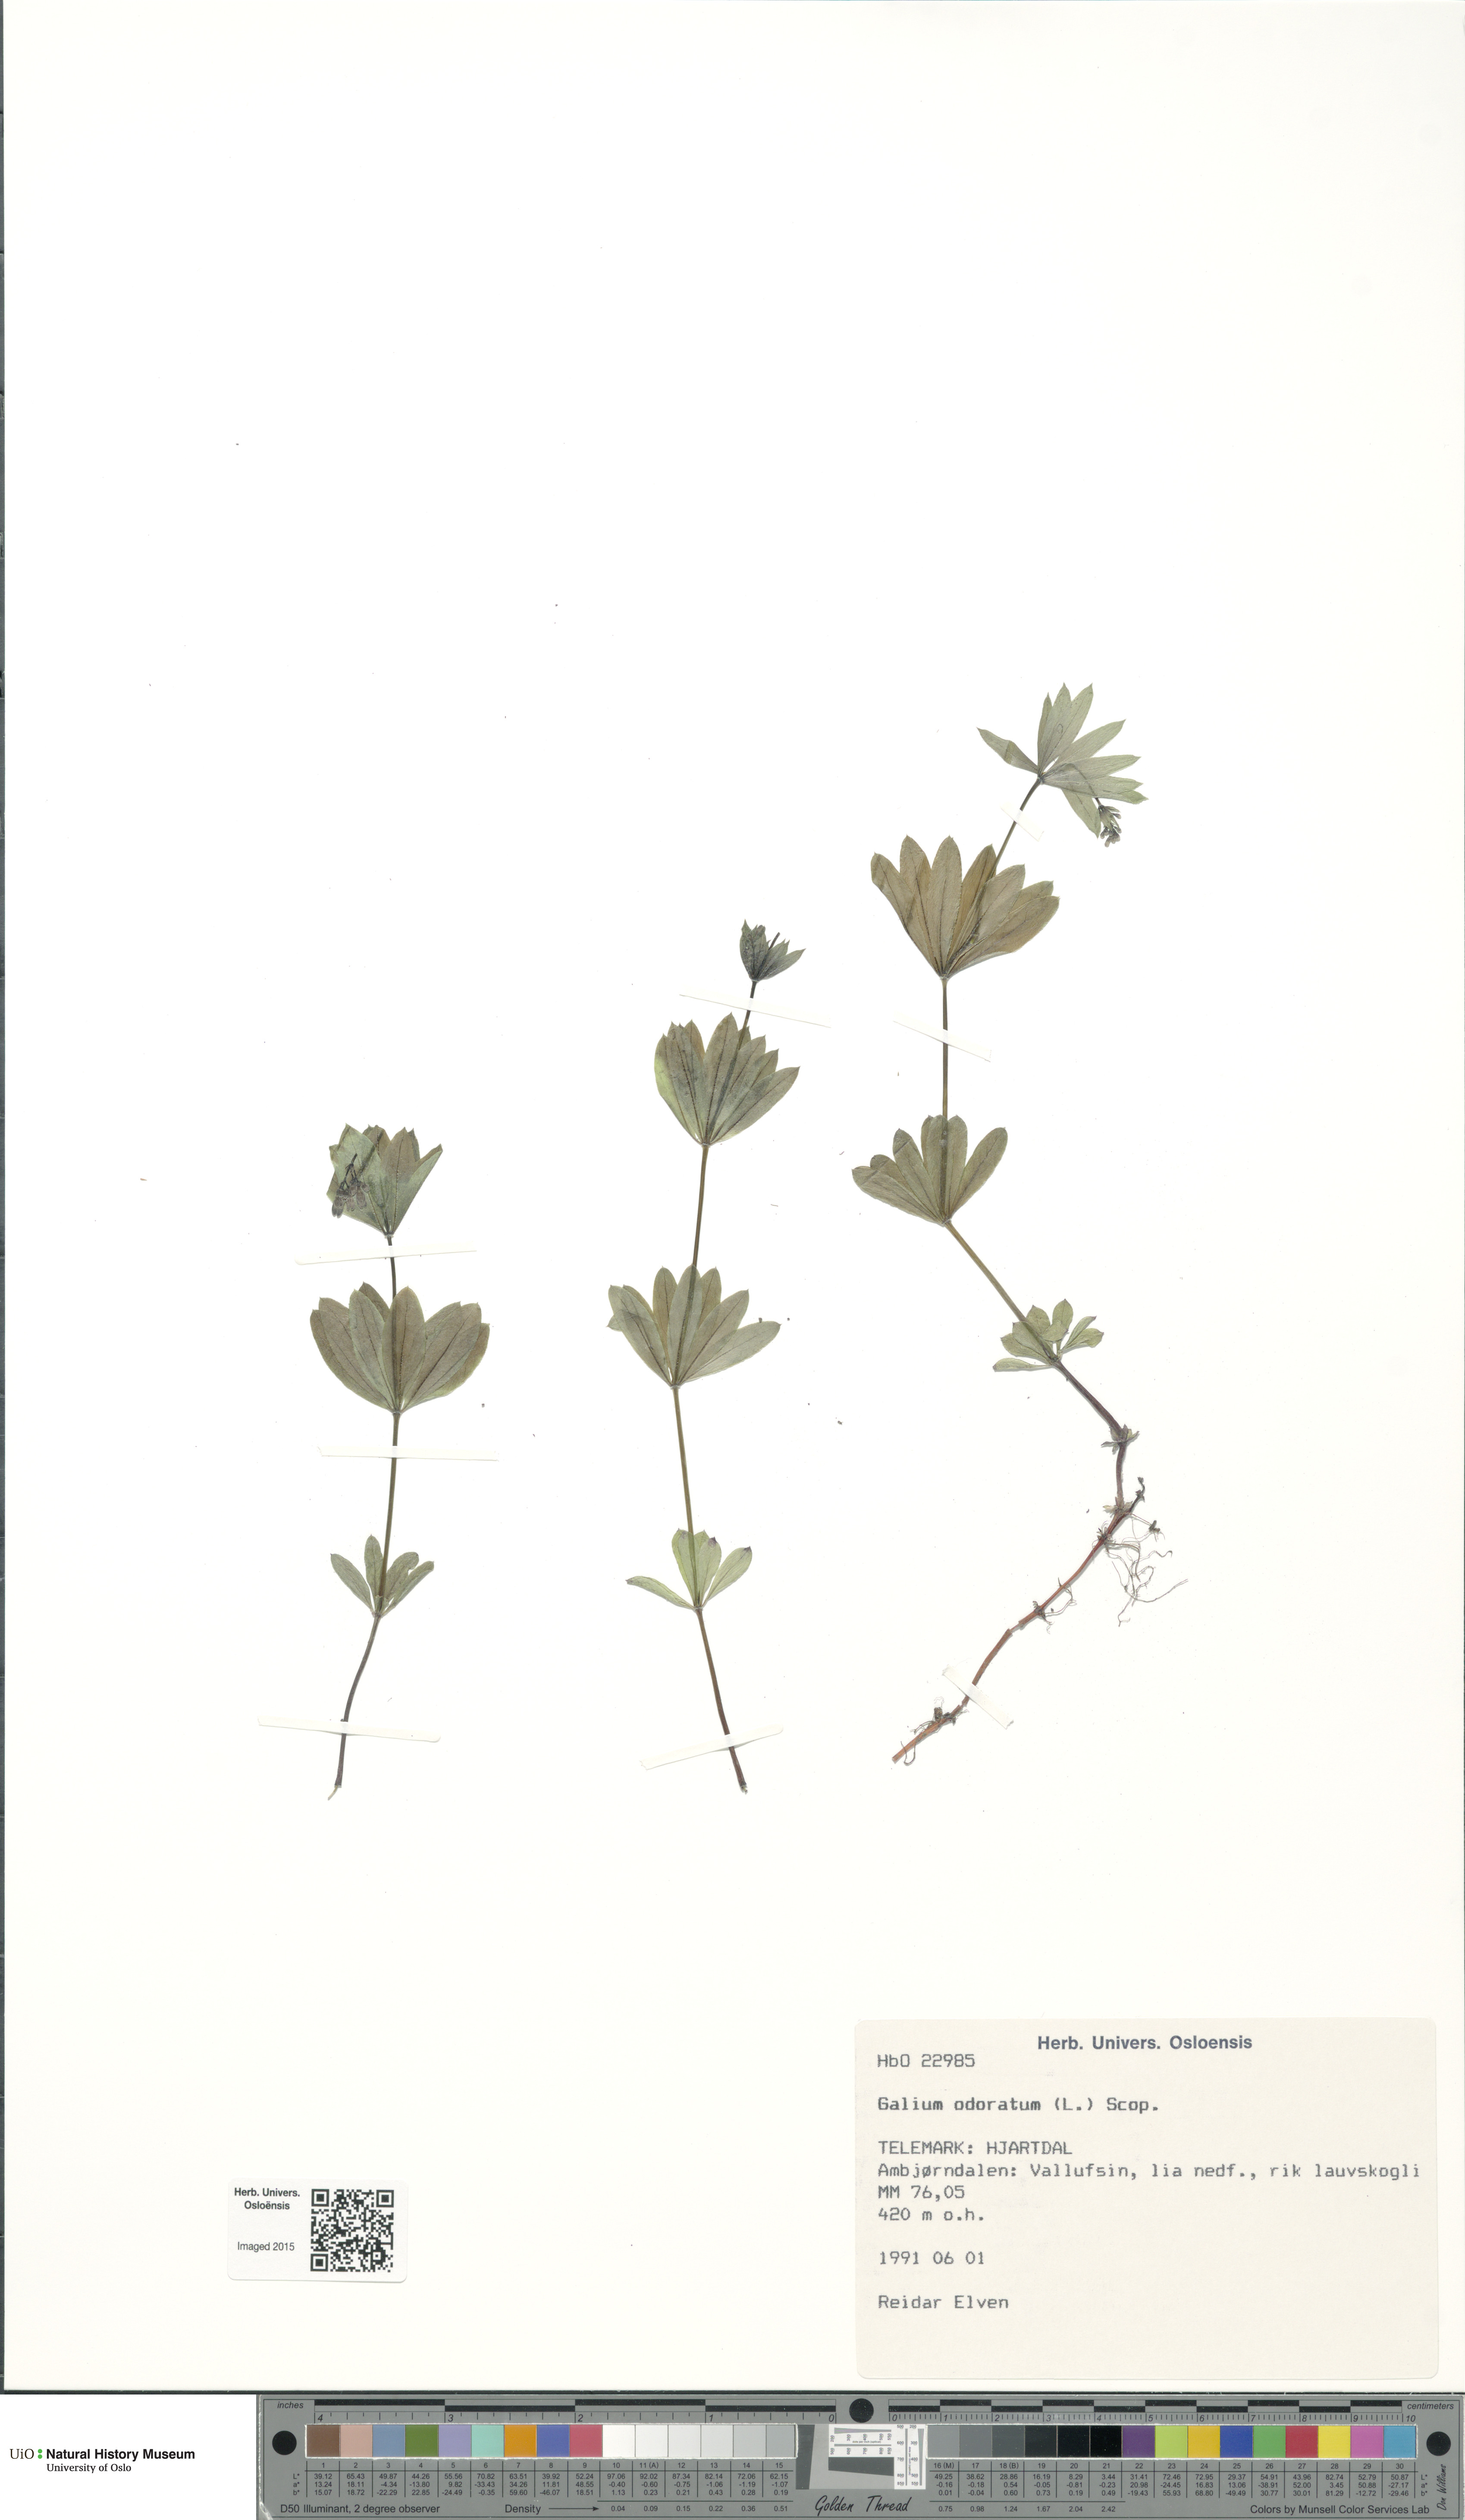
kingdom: Plantae
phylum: Tracheophyta
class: Magnoliopsida
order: Gentianales
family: Rubiaceae
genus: Galium
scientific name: Galium odoratum
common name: Sweet woodruff
